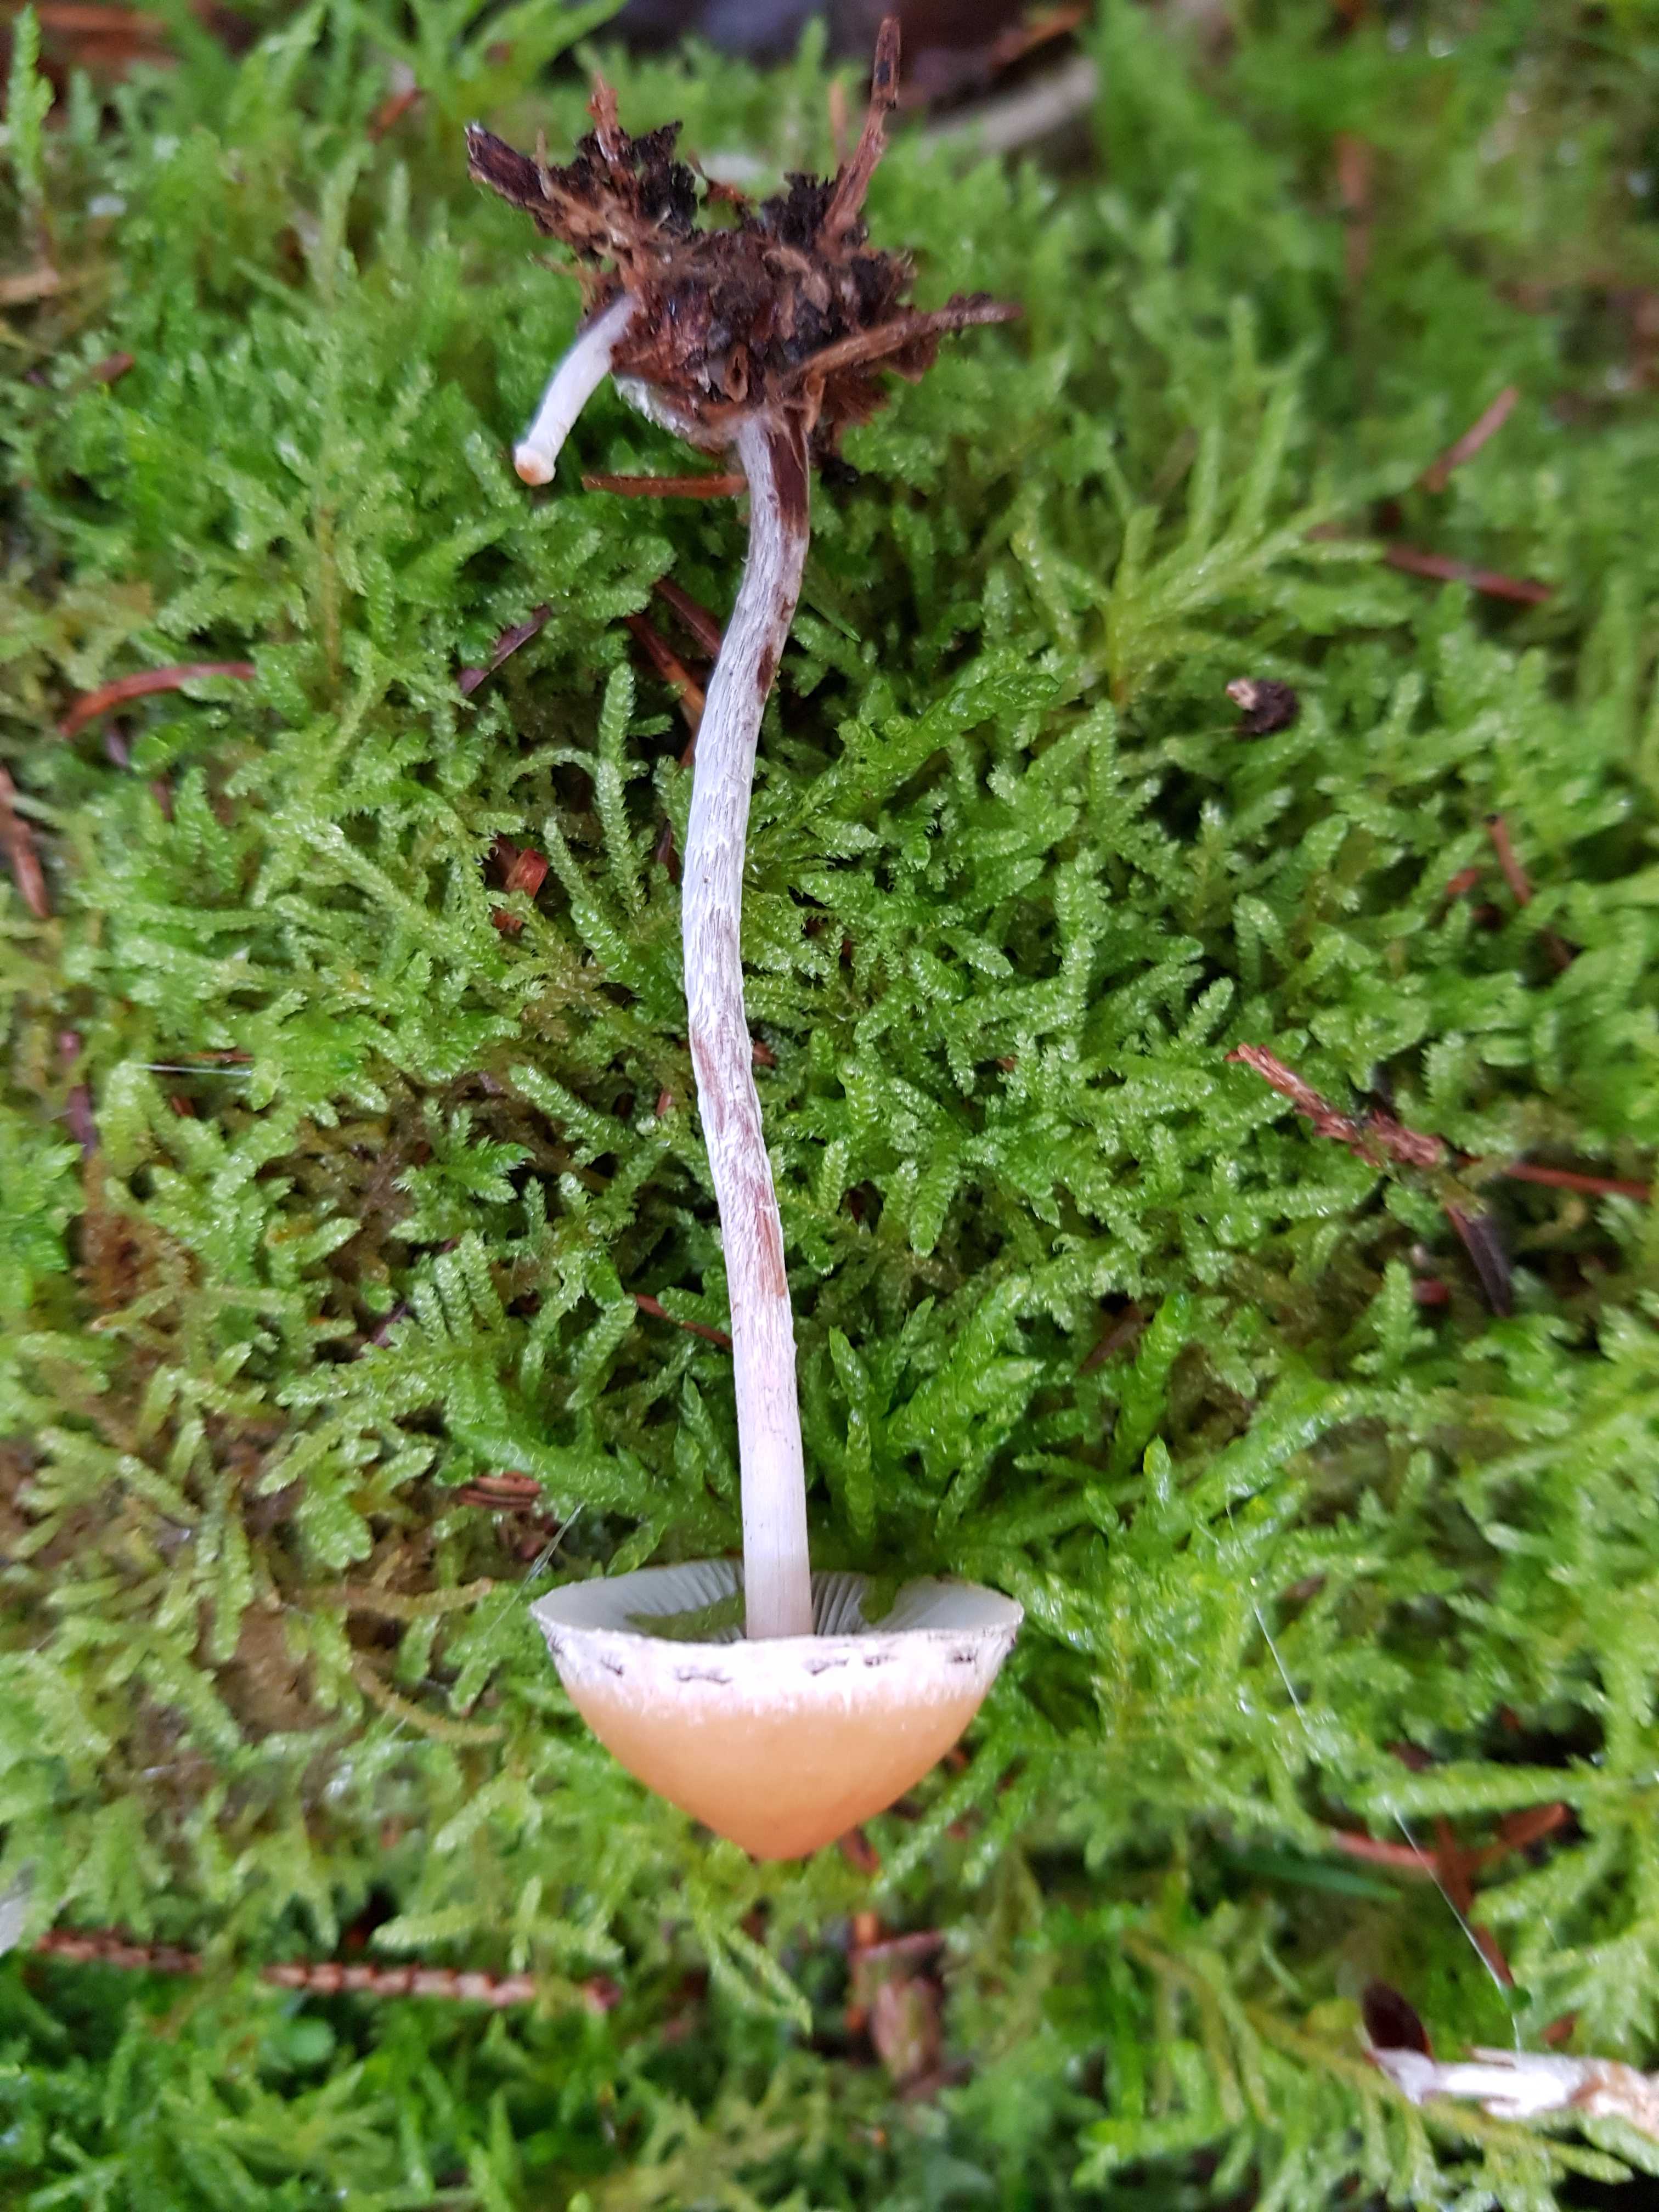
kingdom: Fungi
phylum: Basidiomycota
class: Agaricomycetes
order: Agaricales
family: Strophariaceae
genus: Hypholoma
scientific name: Hypholoma marginatum
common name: enlig svovlhat
